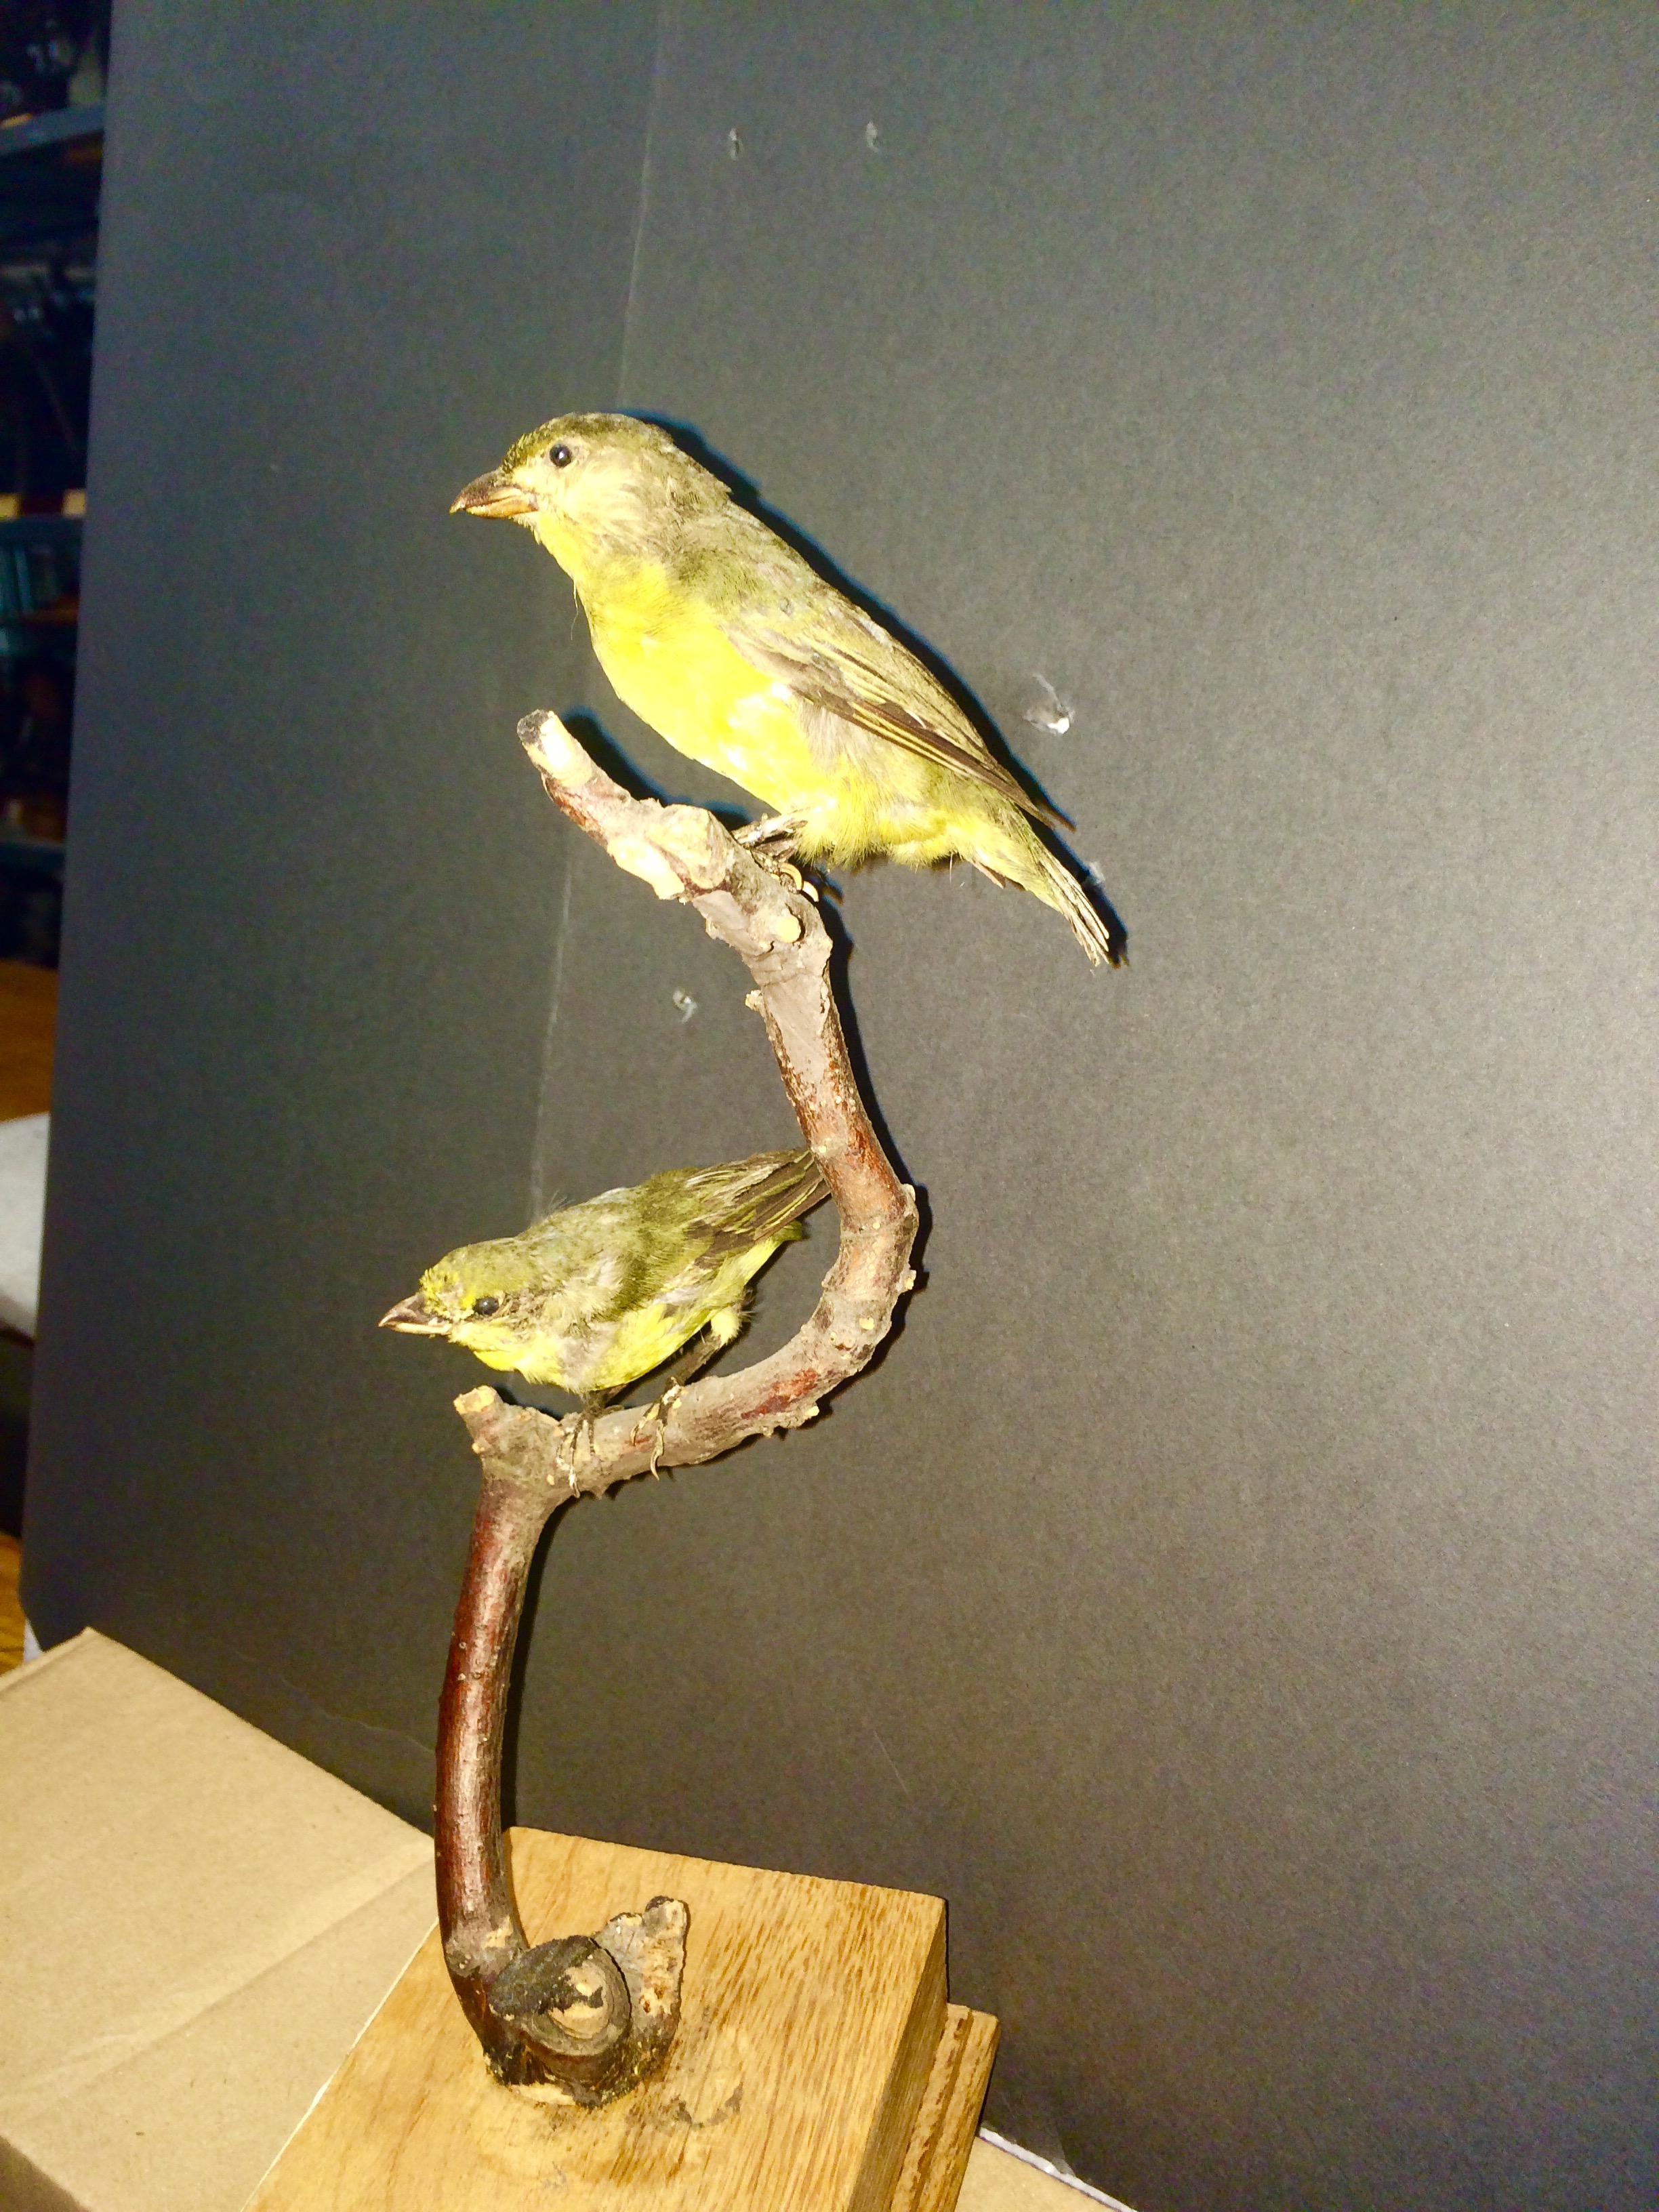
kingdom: Animalia
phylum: Chordata
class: Aves
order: Passeriformes
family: Fringillidae
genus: Euphonia
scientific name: Euphonia laniirostris
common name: Thick-billed euphonia
